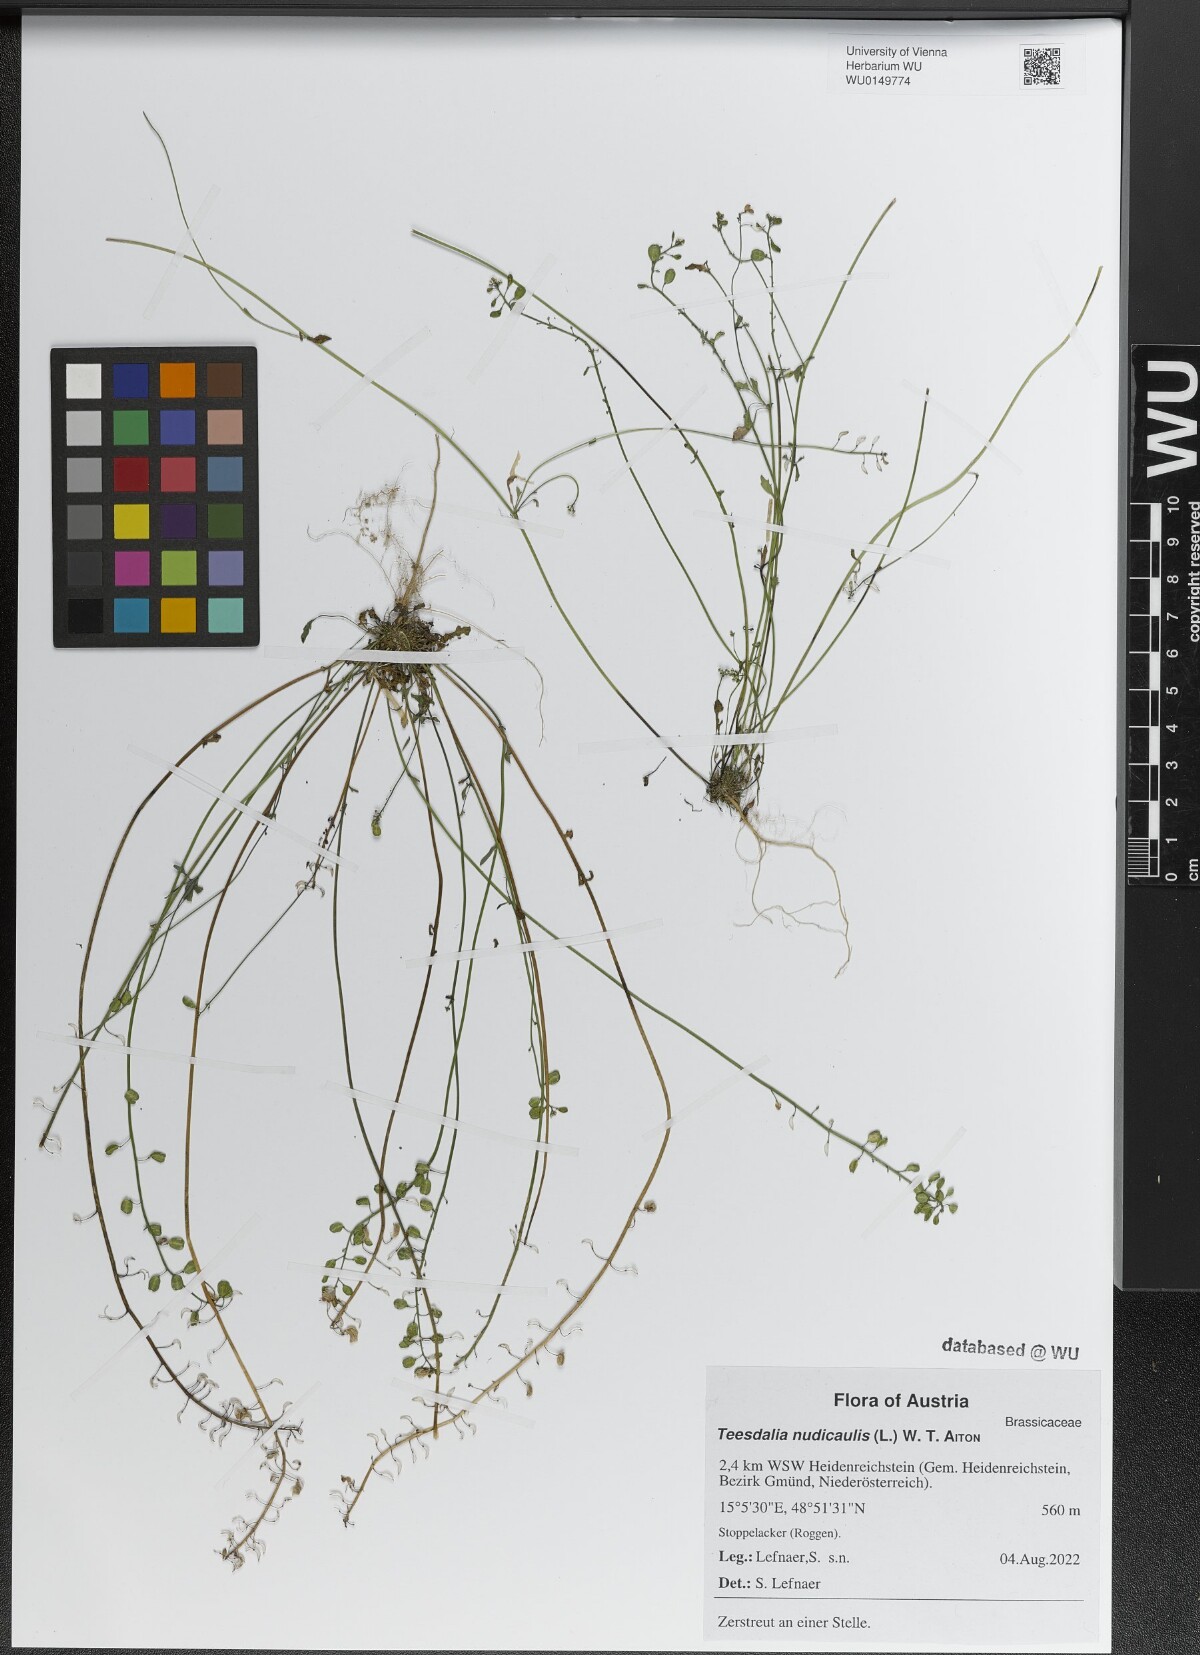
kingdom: Plantae
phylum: Tracheophyta
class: Magnoliopsida
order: Brassicales
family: Brassicaceae
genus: Teesdalia
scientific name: Teesdalia nudicaulis
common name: Shepherd's cress
